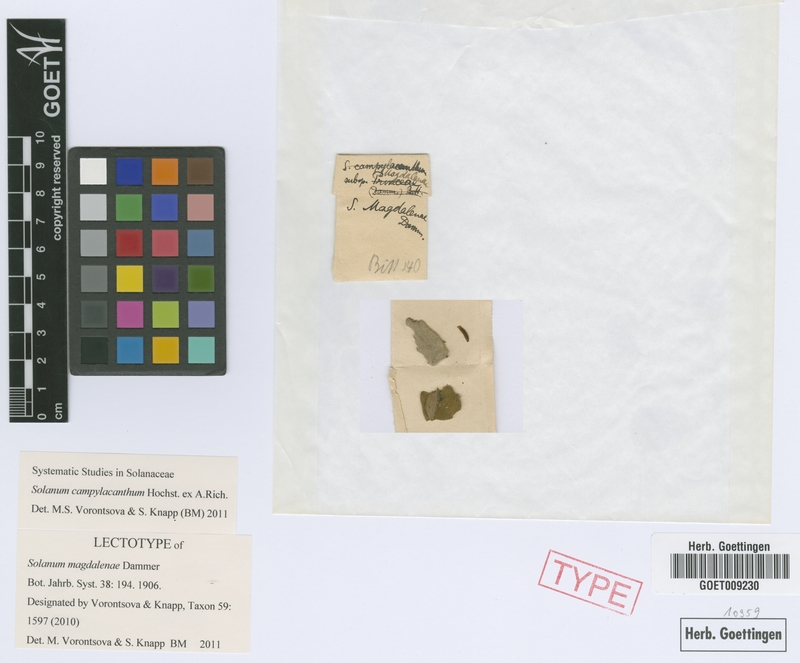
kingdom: Plantae
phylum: Tracheophyta
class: Magnoliopsida
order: Solanales
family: Solanaceae
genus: Solanum
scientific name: Solanum campylacanthum
